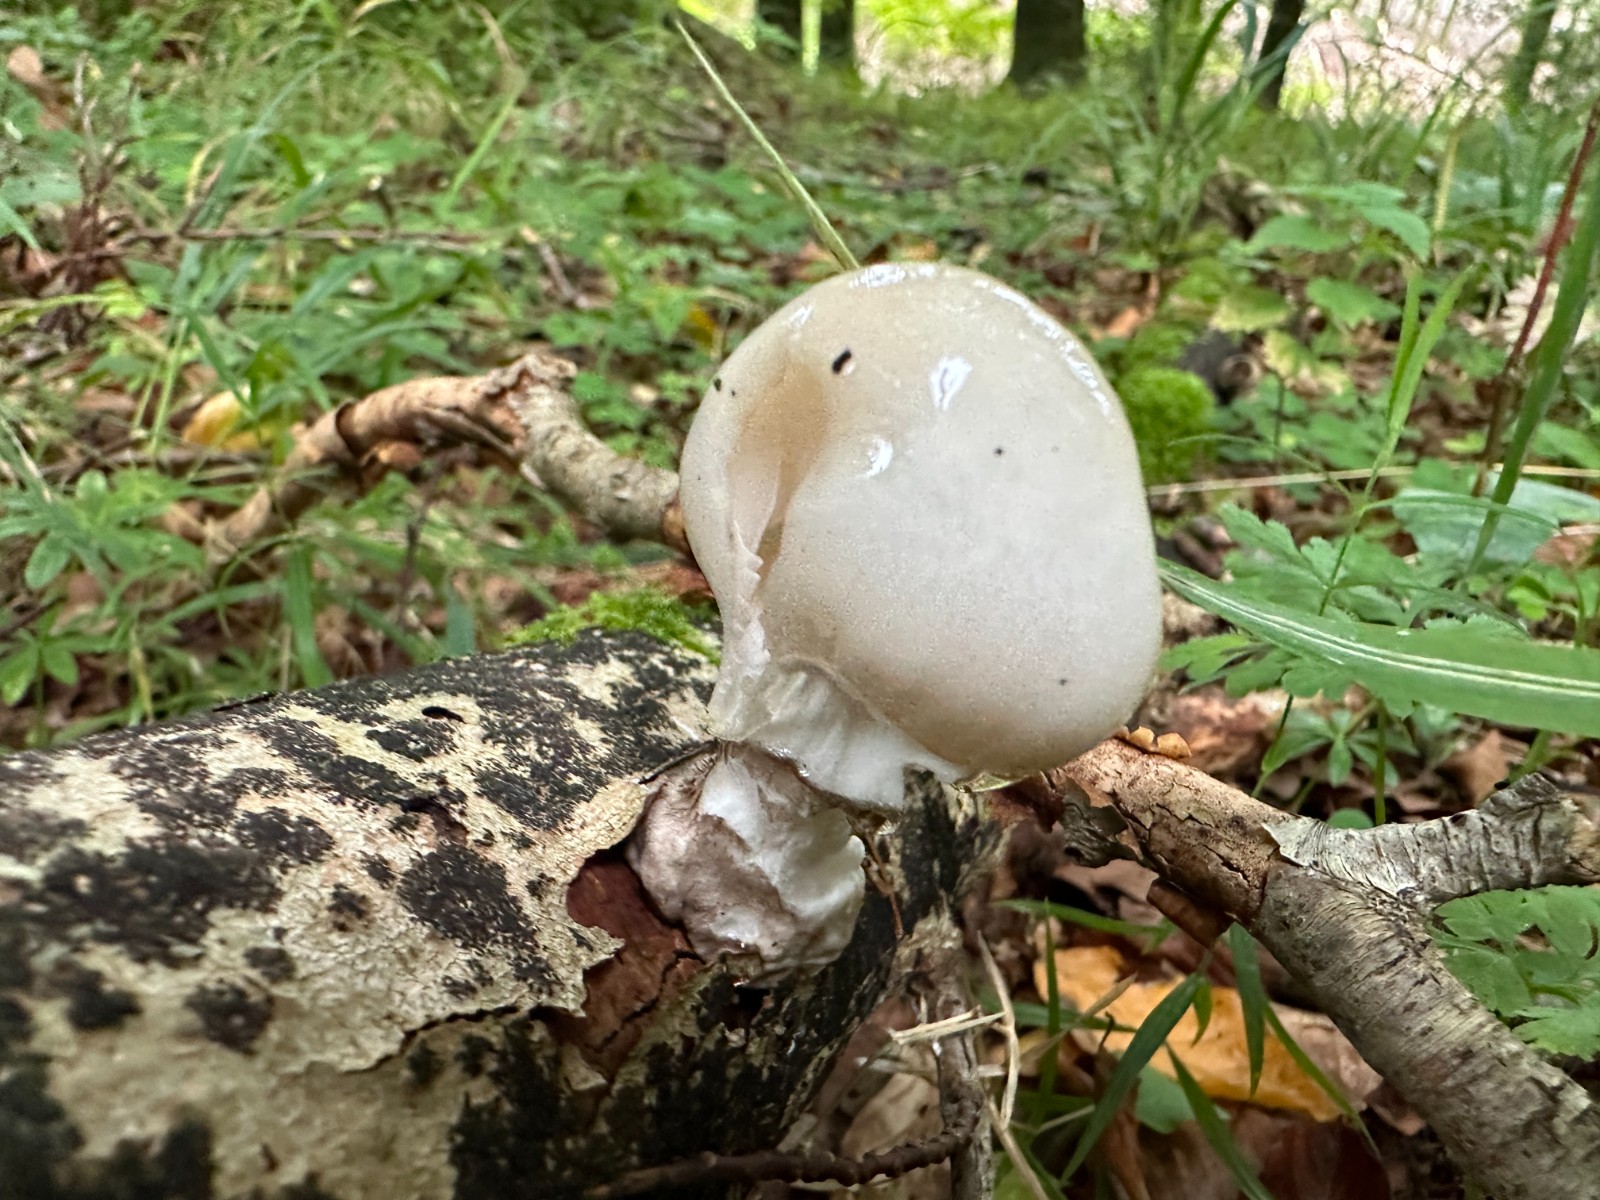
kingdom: Fungi
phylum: Basidiomycota
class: Agaricomycetes
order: Agaricales
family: Physalacriaceae
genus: Mucidula
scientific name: Mucidula mucida
